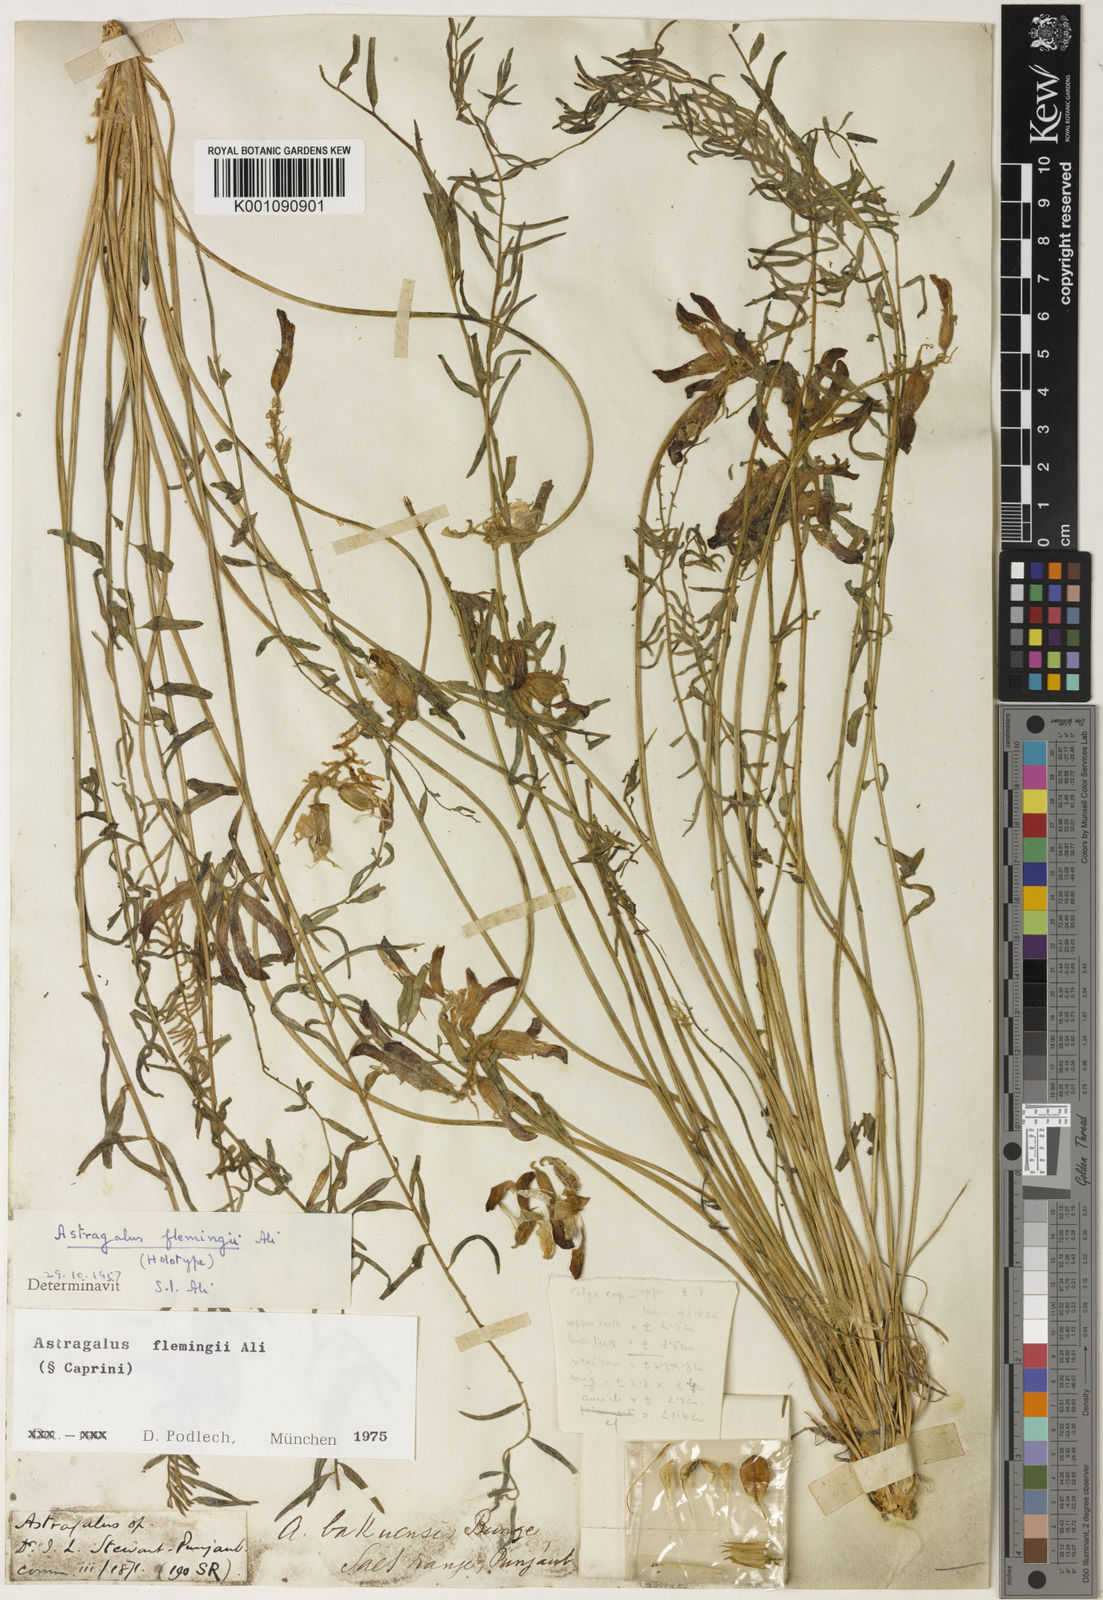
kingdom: Plantae
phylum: Tracheophyta
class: Magnoliopsida
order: Fabales
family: Fabaceae
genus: Astragalus
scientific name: Astragalus
